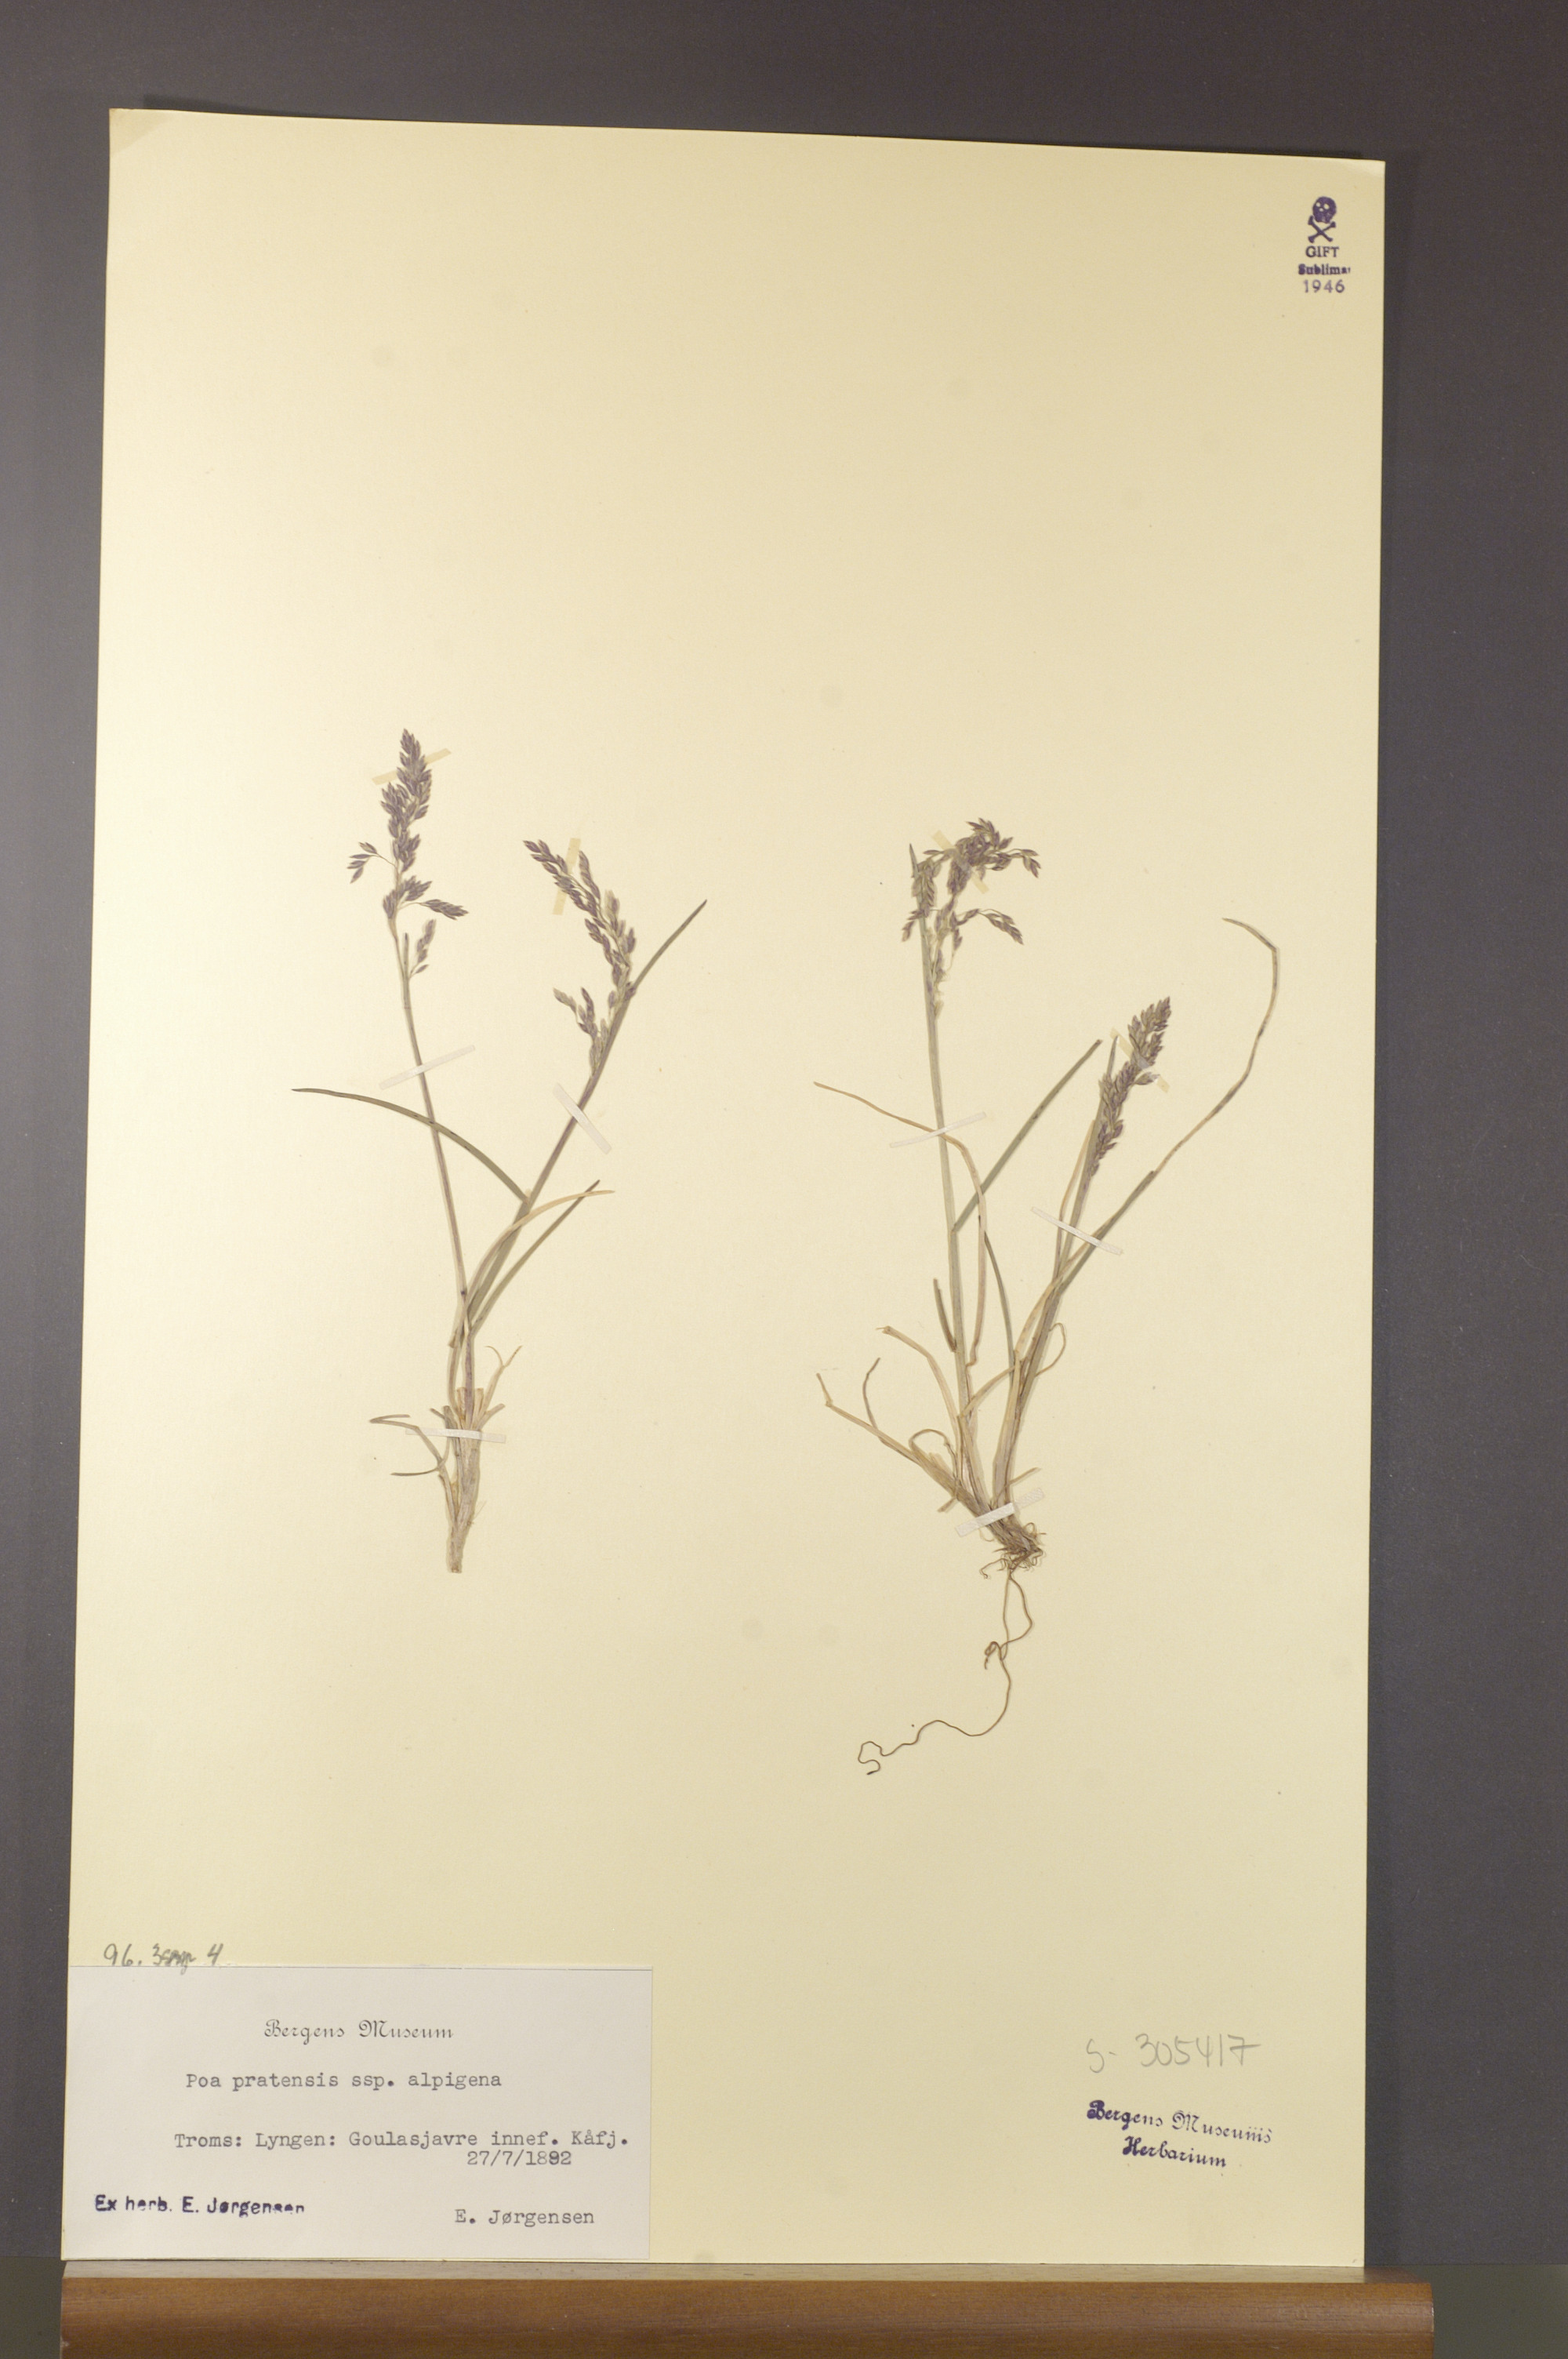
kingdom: Plantae
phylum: Tracheophyta
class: Liliopsida
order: Poales
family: Poaceae
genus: Poa
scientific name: Poa alpigena
